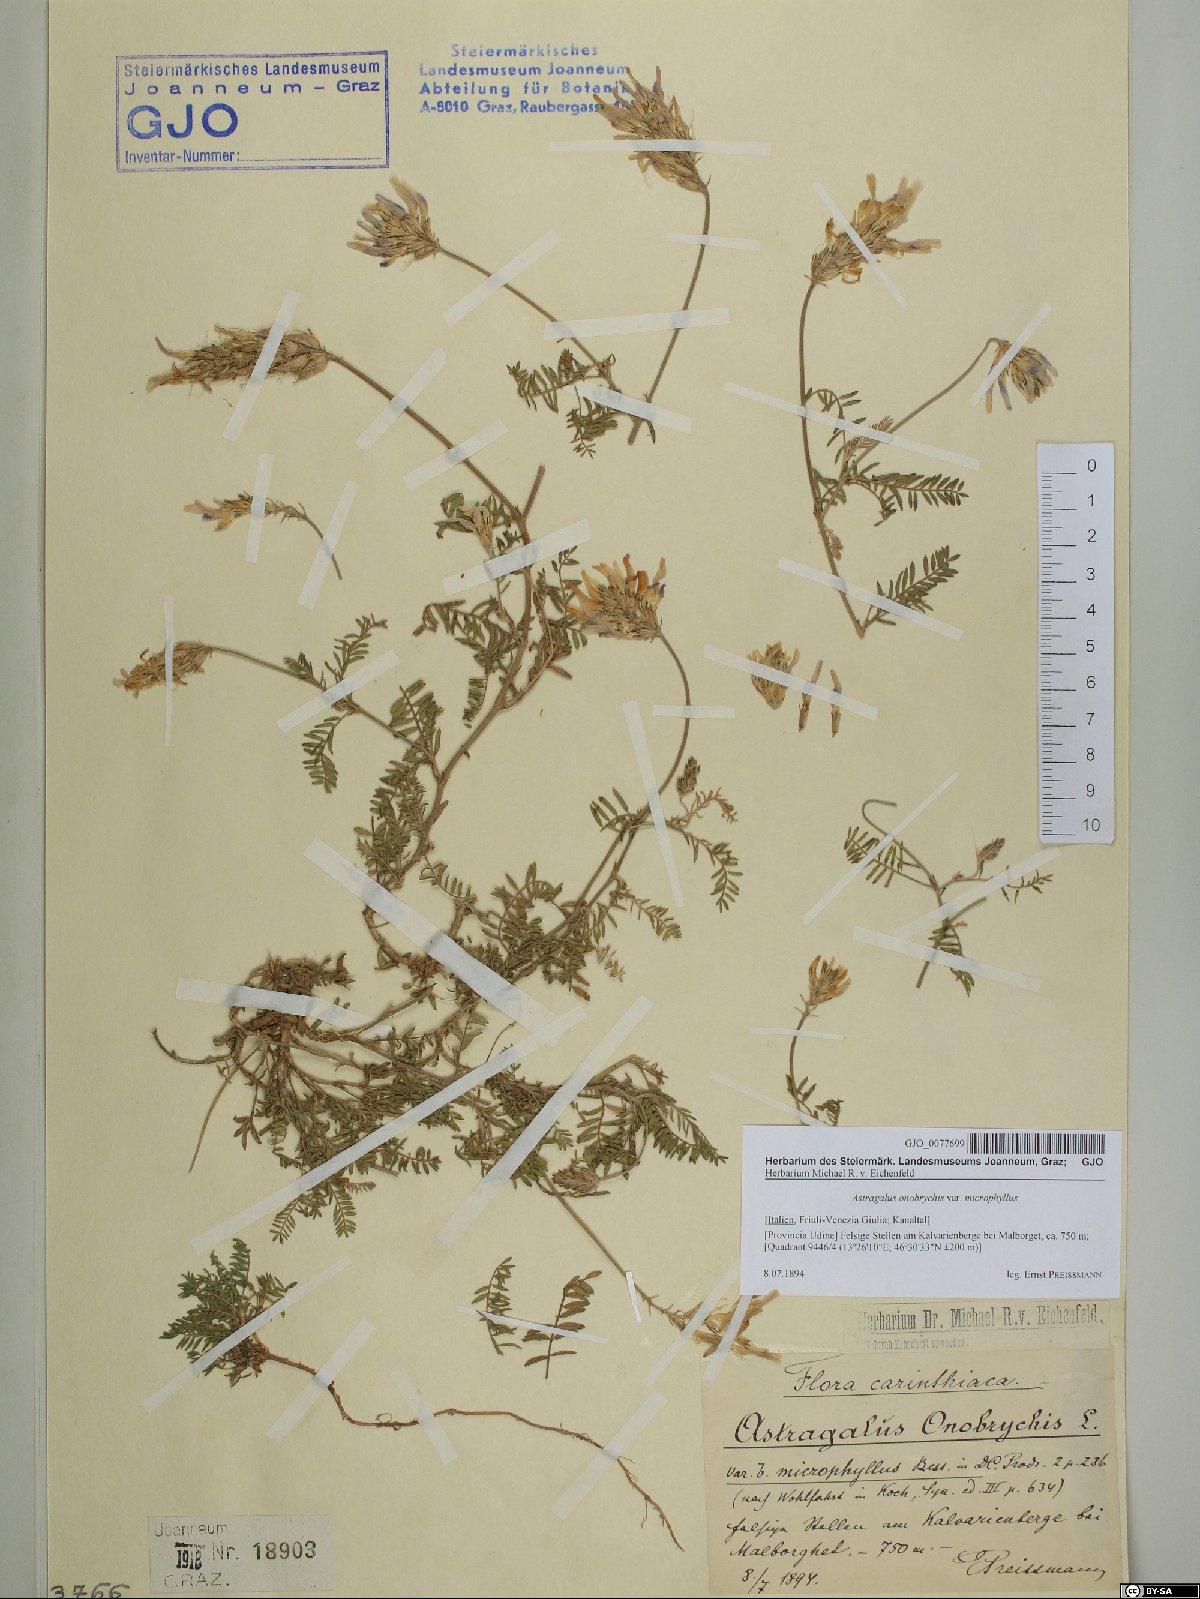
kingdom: Plantae
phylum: Tracheophyta
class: Magnoliopsida
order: Fabales
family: Fabaceae
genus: Astragalus
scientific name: Astragalus onobrychis
